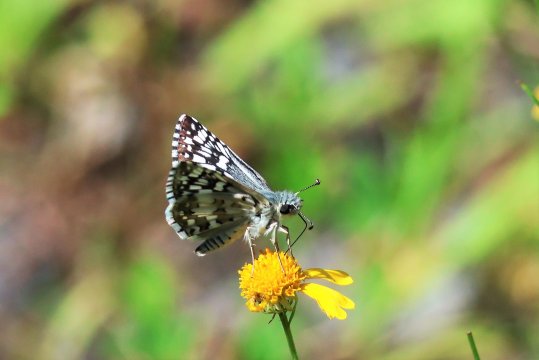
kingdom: Animalia
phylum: Arthropoda
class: Insecta
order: Lepidoptera
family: Hesperiidae
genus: Pyrgus
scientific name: Pyrgus communis
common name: Common Checkered-Skipper
